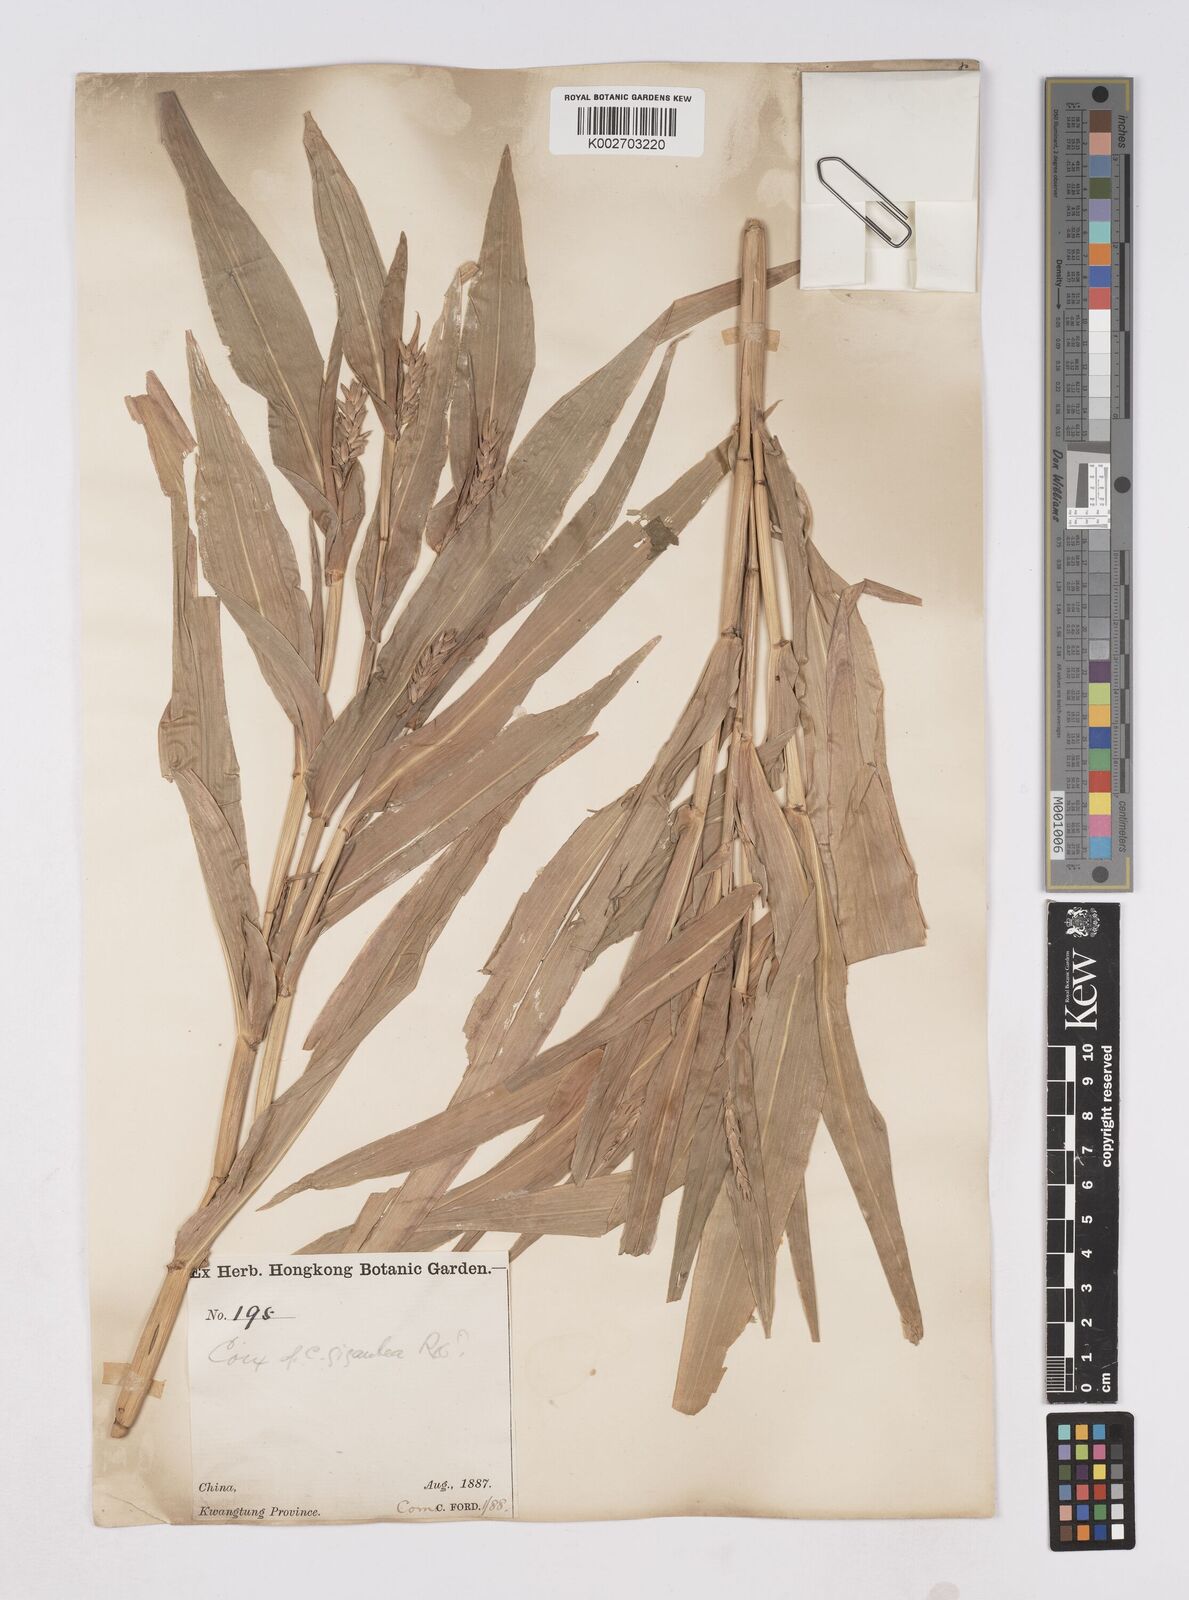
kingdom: Plantae
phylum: Tracheophyta
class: Liliopsida
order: Poales
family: Poaceae
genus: Coix
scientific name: Coix lacryma-jobi
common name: Job's tears
